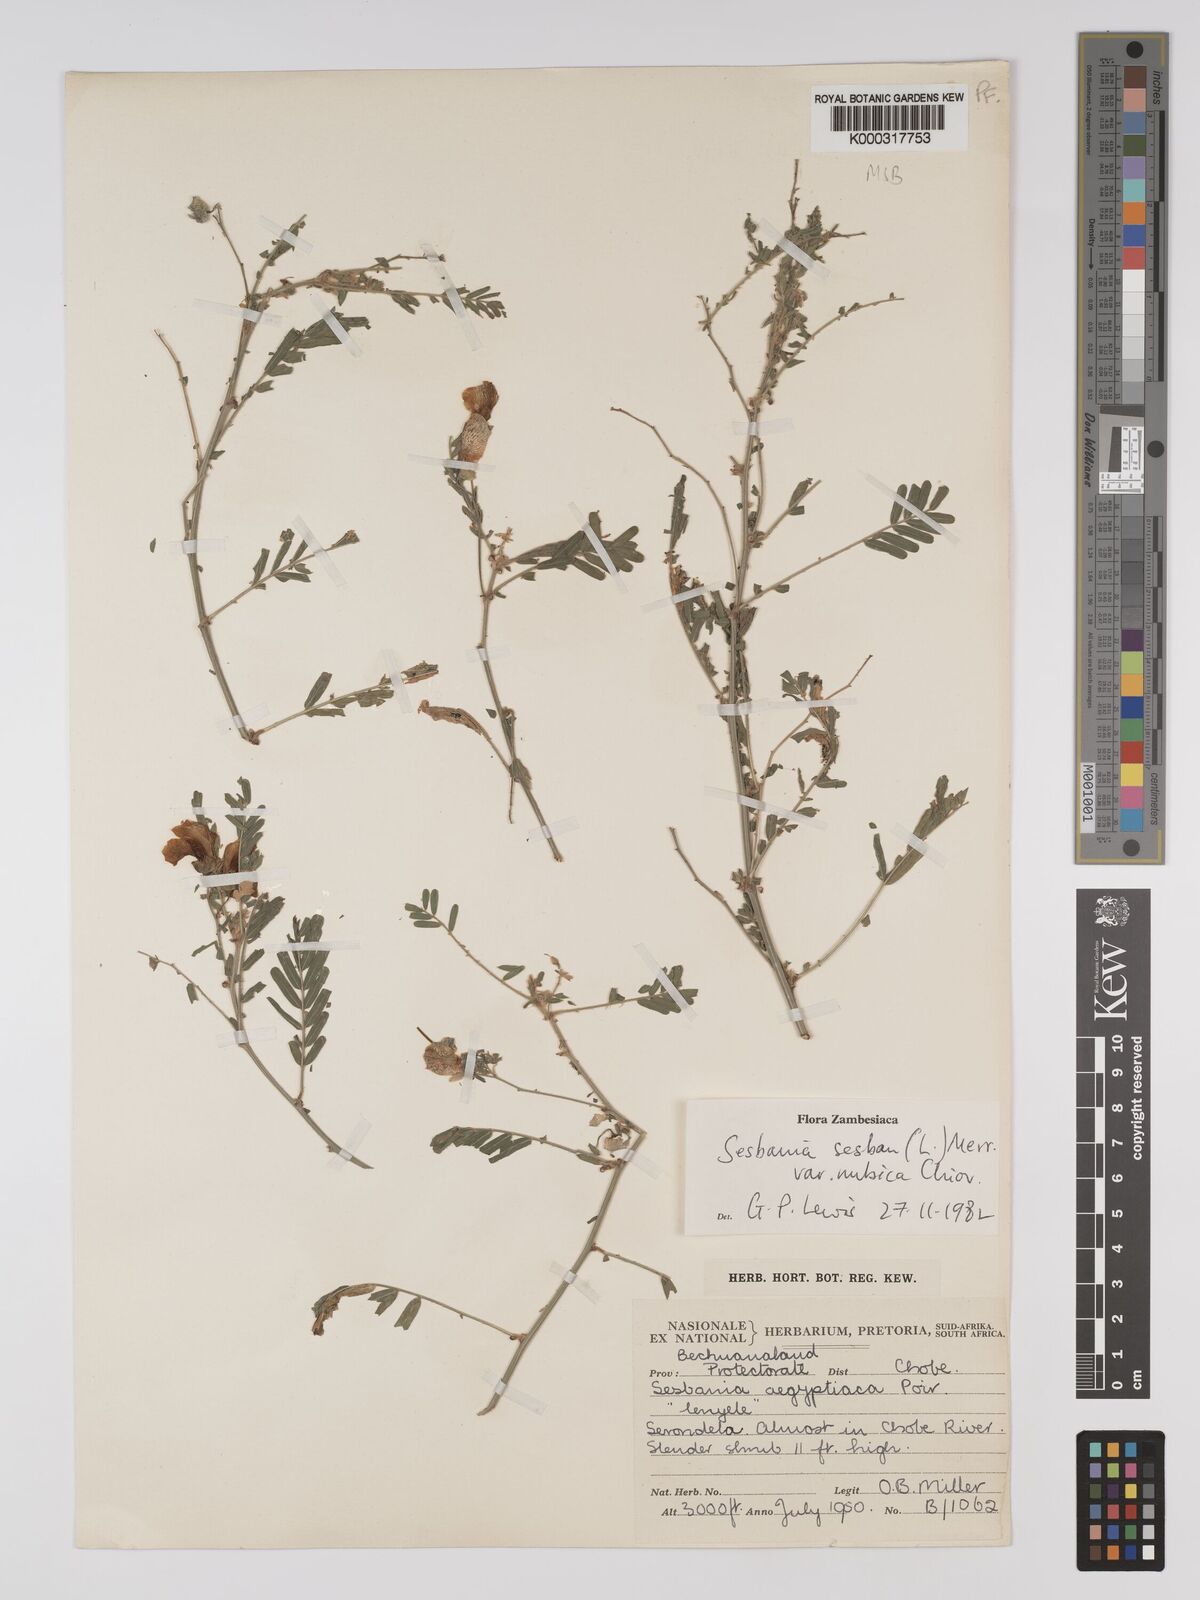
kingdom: Plantae
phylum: Tracheophyta
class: Magnoliopsida
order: Fabales
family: Fabaceae
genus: Sesbania
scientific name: Sesbania sesban
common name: Egyptian sesban
